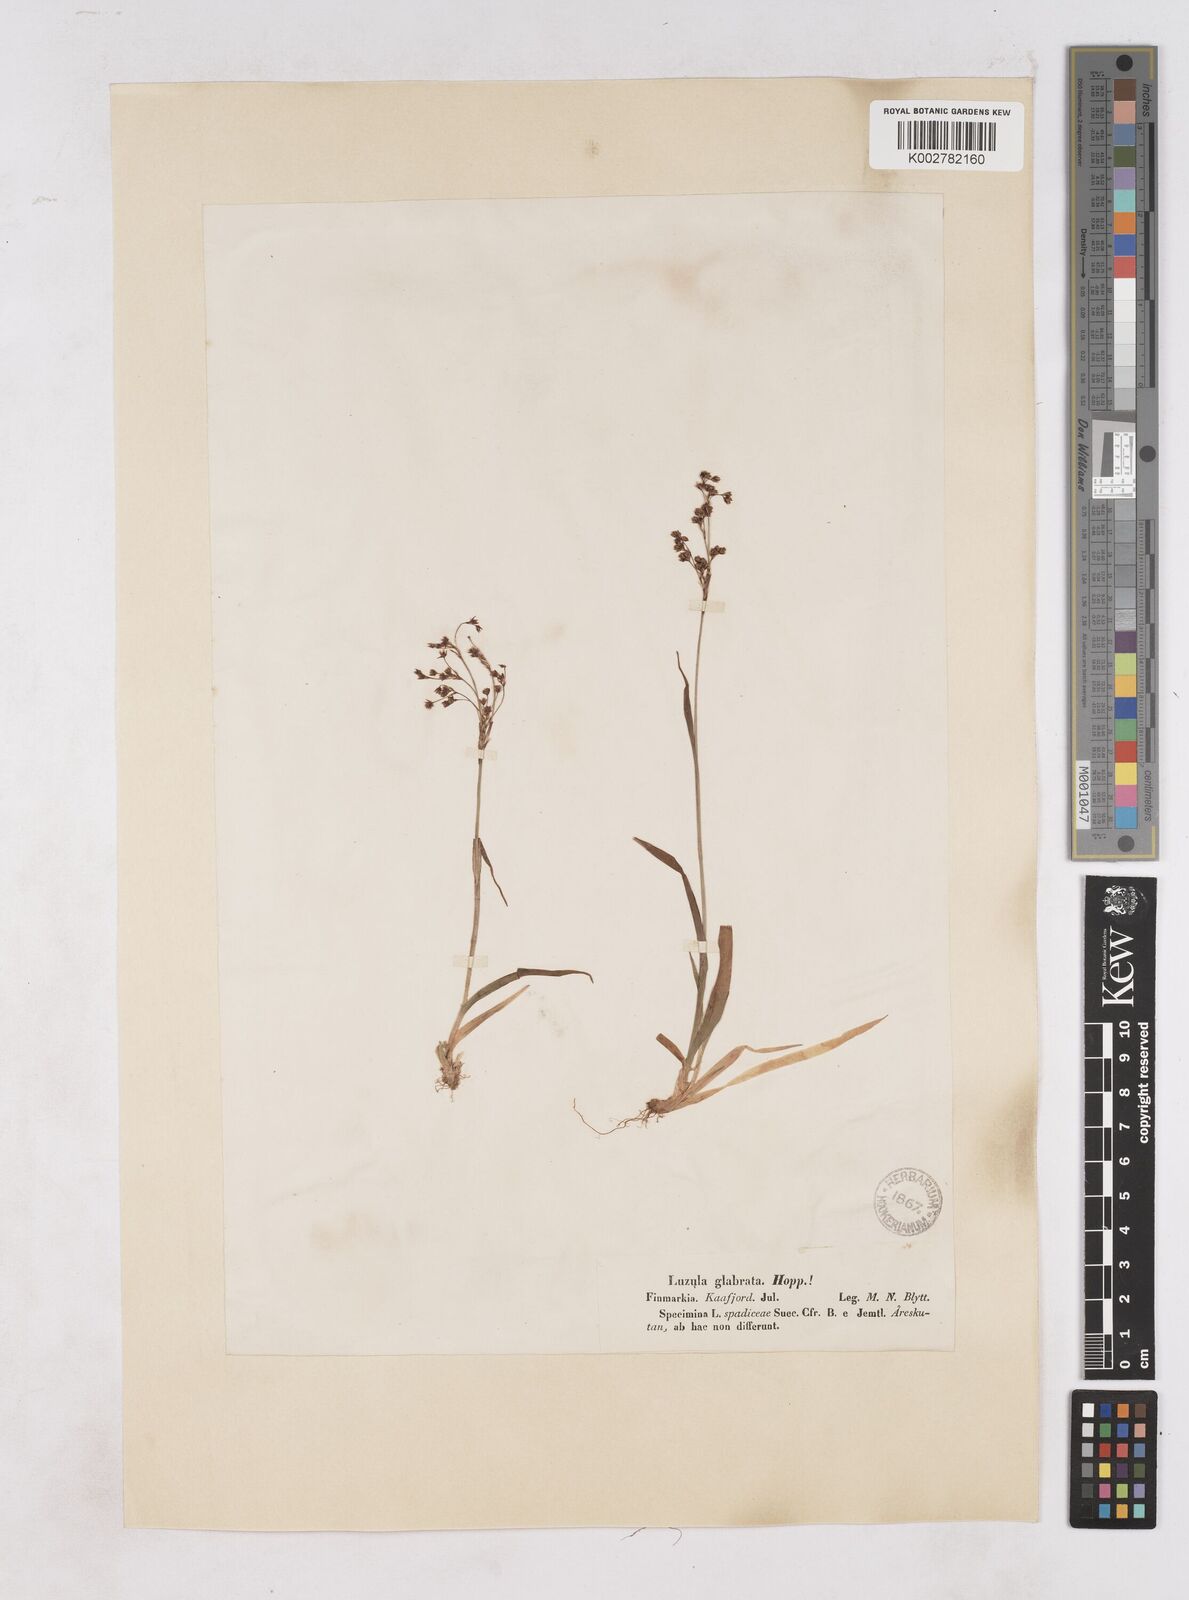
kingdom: Plantae
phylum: Tracheophyta
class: Liliopsida
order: Poales
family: Juncaceae
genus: Luzula
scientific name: Luzula glabrata
